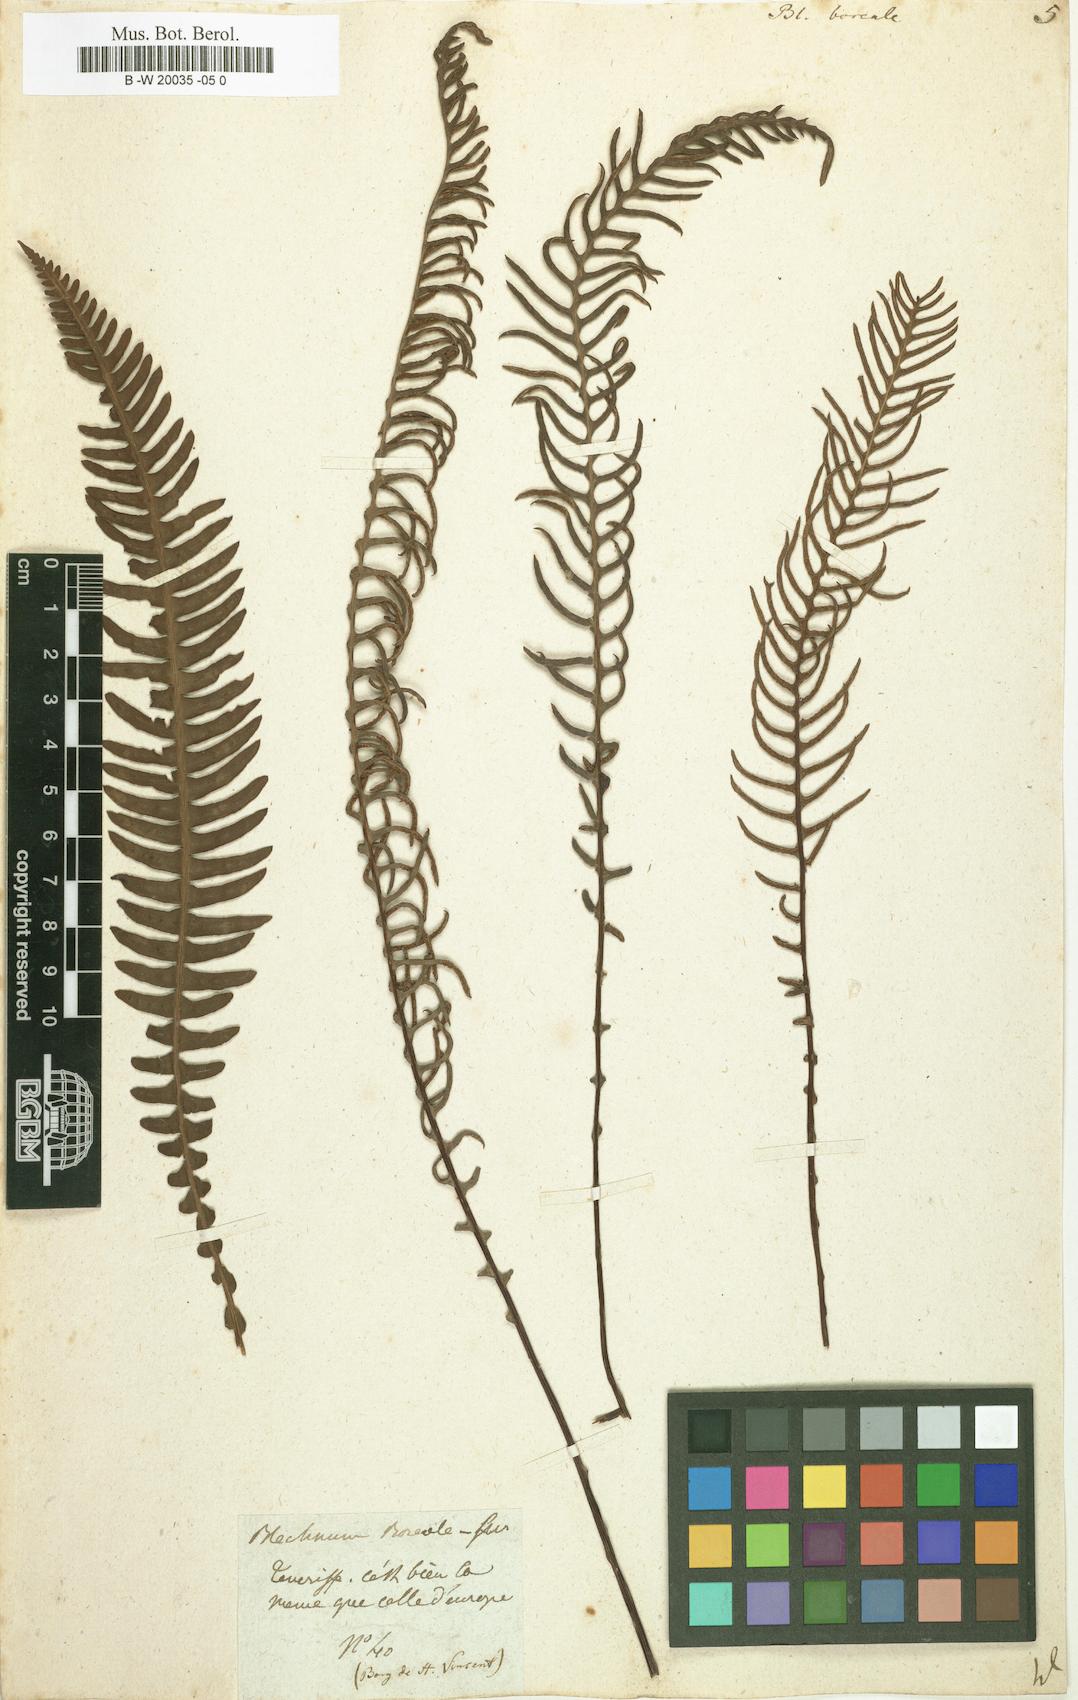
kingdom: Plantae
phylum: Tracheophyta
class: Polypodiopsida
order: Polypodiales
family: Blechnaceae
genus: Struthiopteris
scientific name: Struthiopteris spicant
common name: Deer fern
